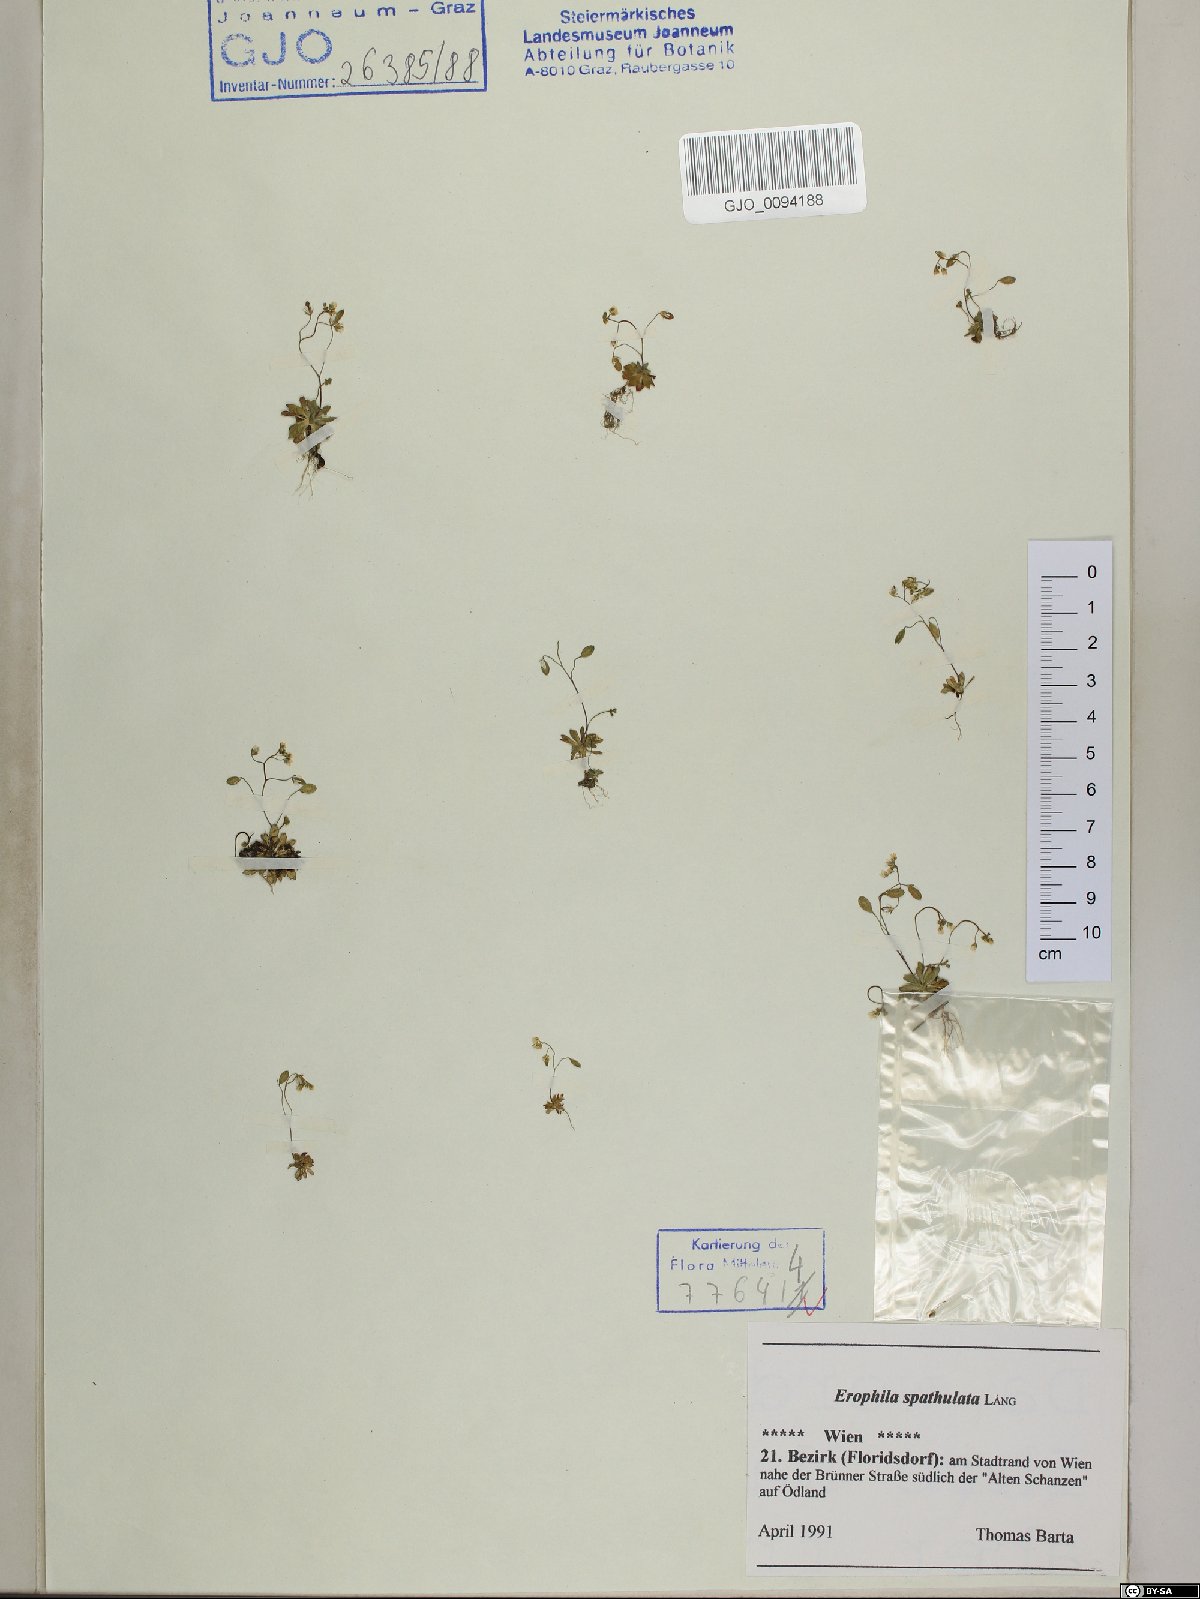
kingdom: Plantae
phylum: Tracheophyta
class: Magnoliopsida
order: Brassicales
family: Brassicaceae
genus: Draba
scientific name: Draba verna
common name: Spring draba
